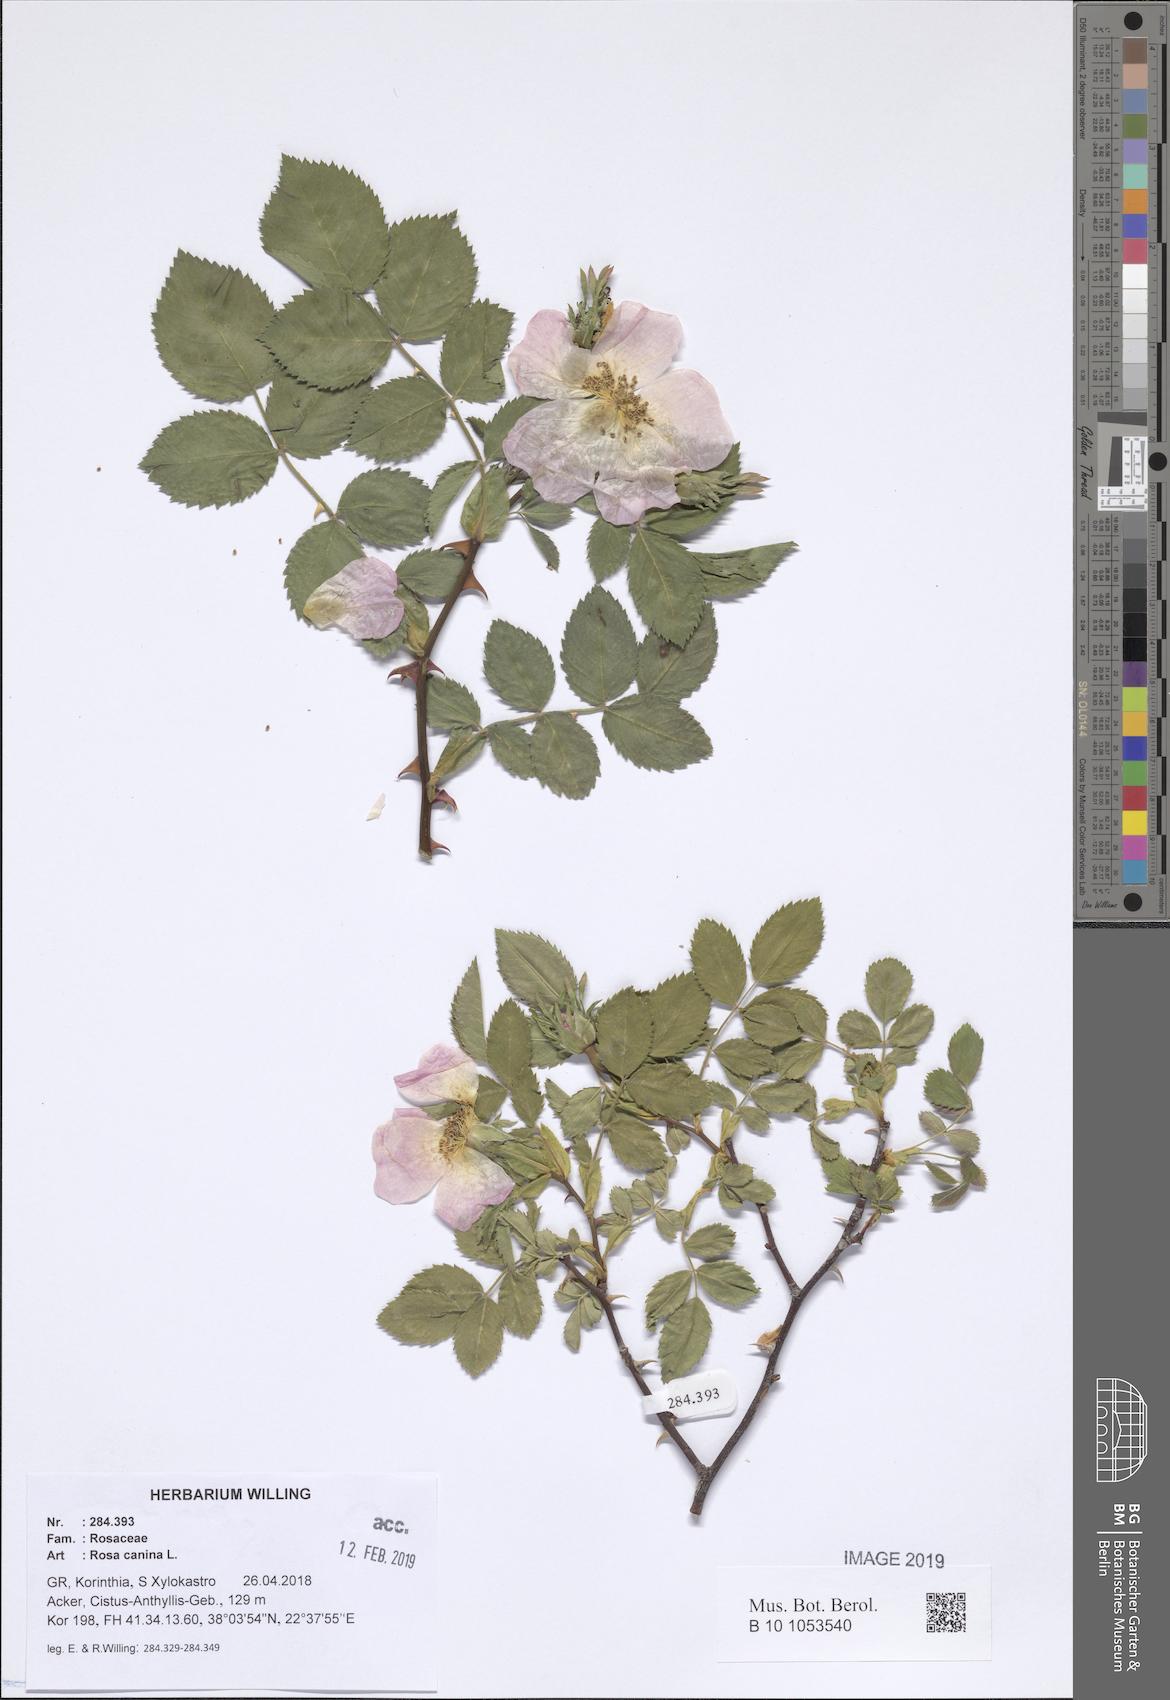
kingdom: Plantae
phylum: Tracheophyta
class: Magnoliopsida
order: Rosales
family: Rosaceae
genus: Rosa
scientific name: Rosa canina
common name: Dog rose
